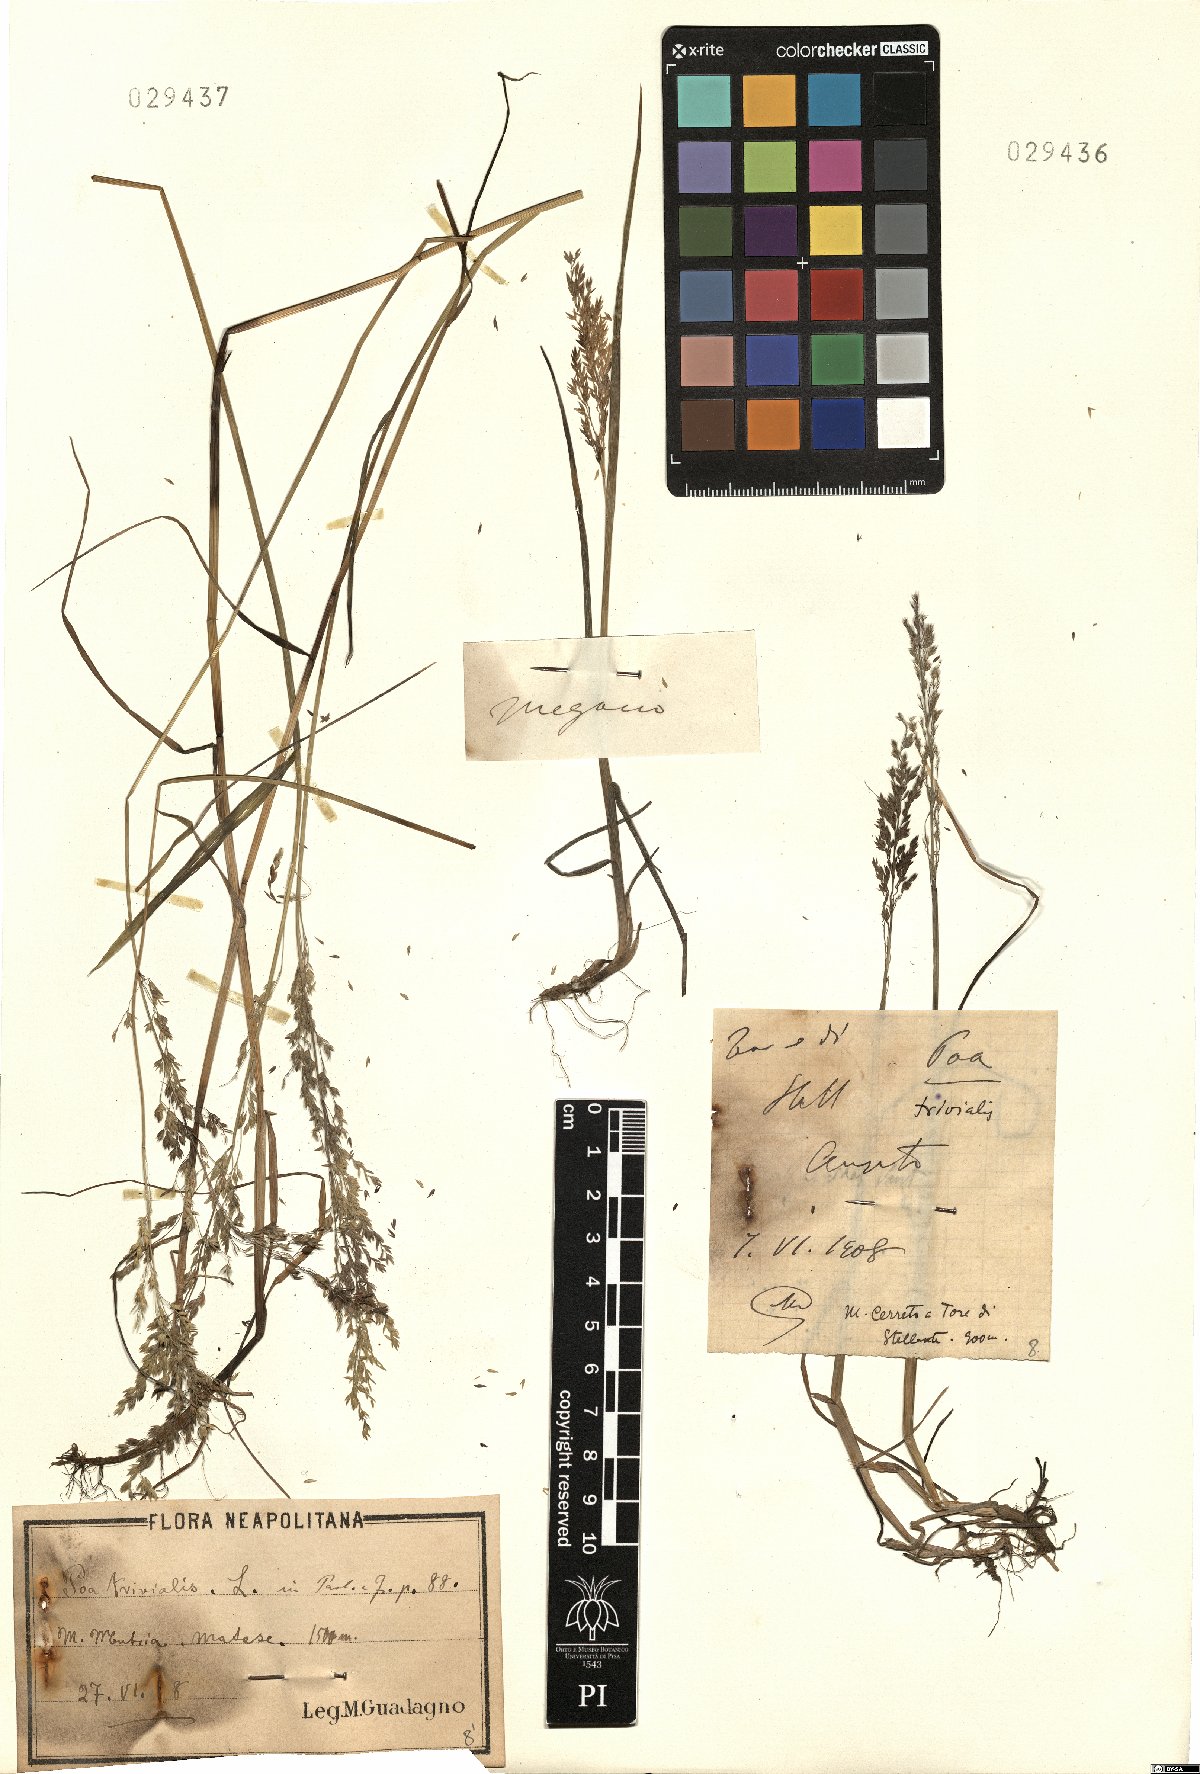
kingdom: Plantae
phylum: Tracheophyta
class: Liliopsida
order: Poales
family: Poaceae
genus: Poa
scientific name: Poa trivialis
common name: Rough bluegrass
